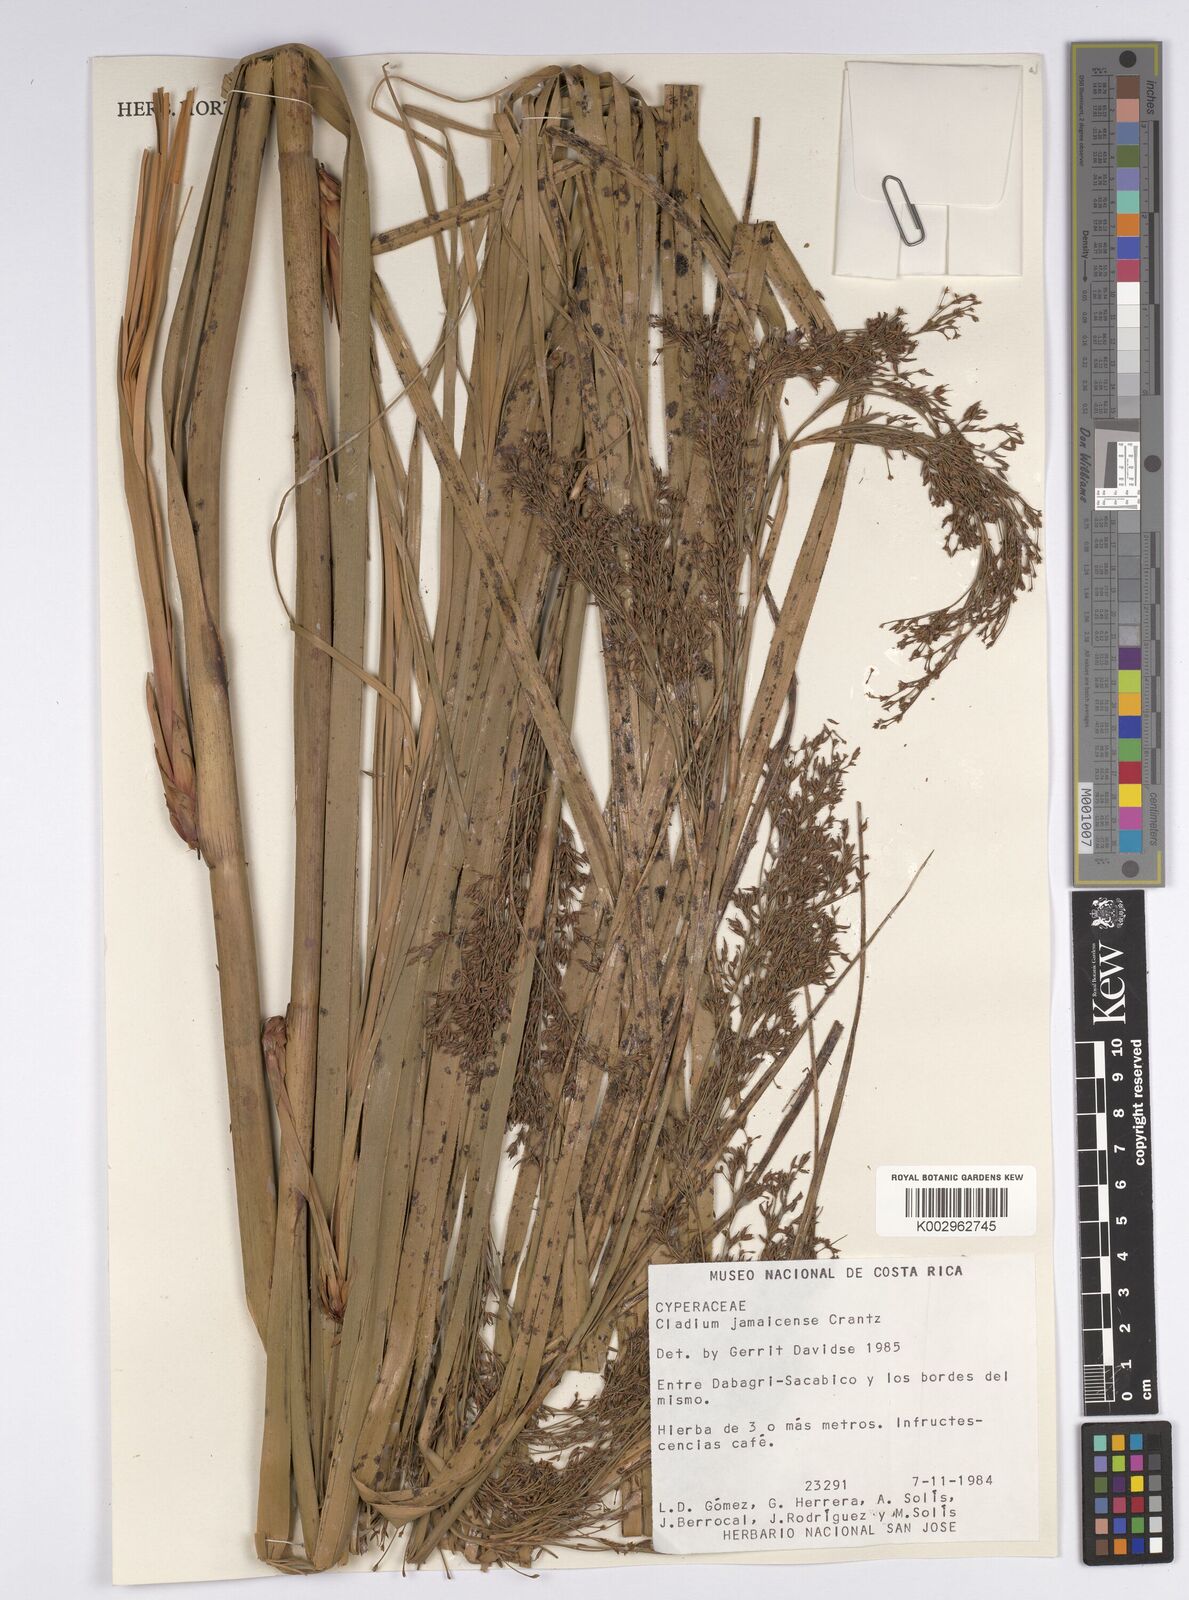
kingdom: Plantae
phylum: Tracheophyta
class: Liliopsida
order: Poales
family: Cyperaceae
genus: Cladium
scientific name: Cladium mariscus
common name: Great fen-sedge
